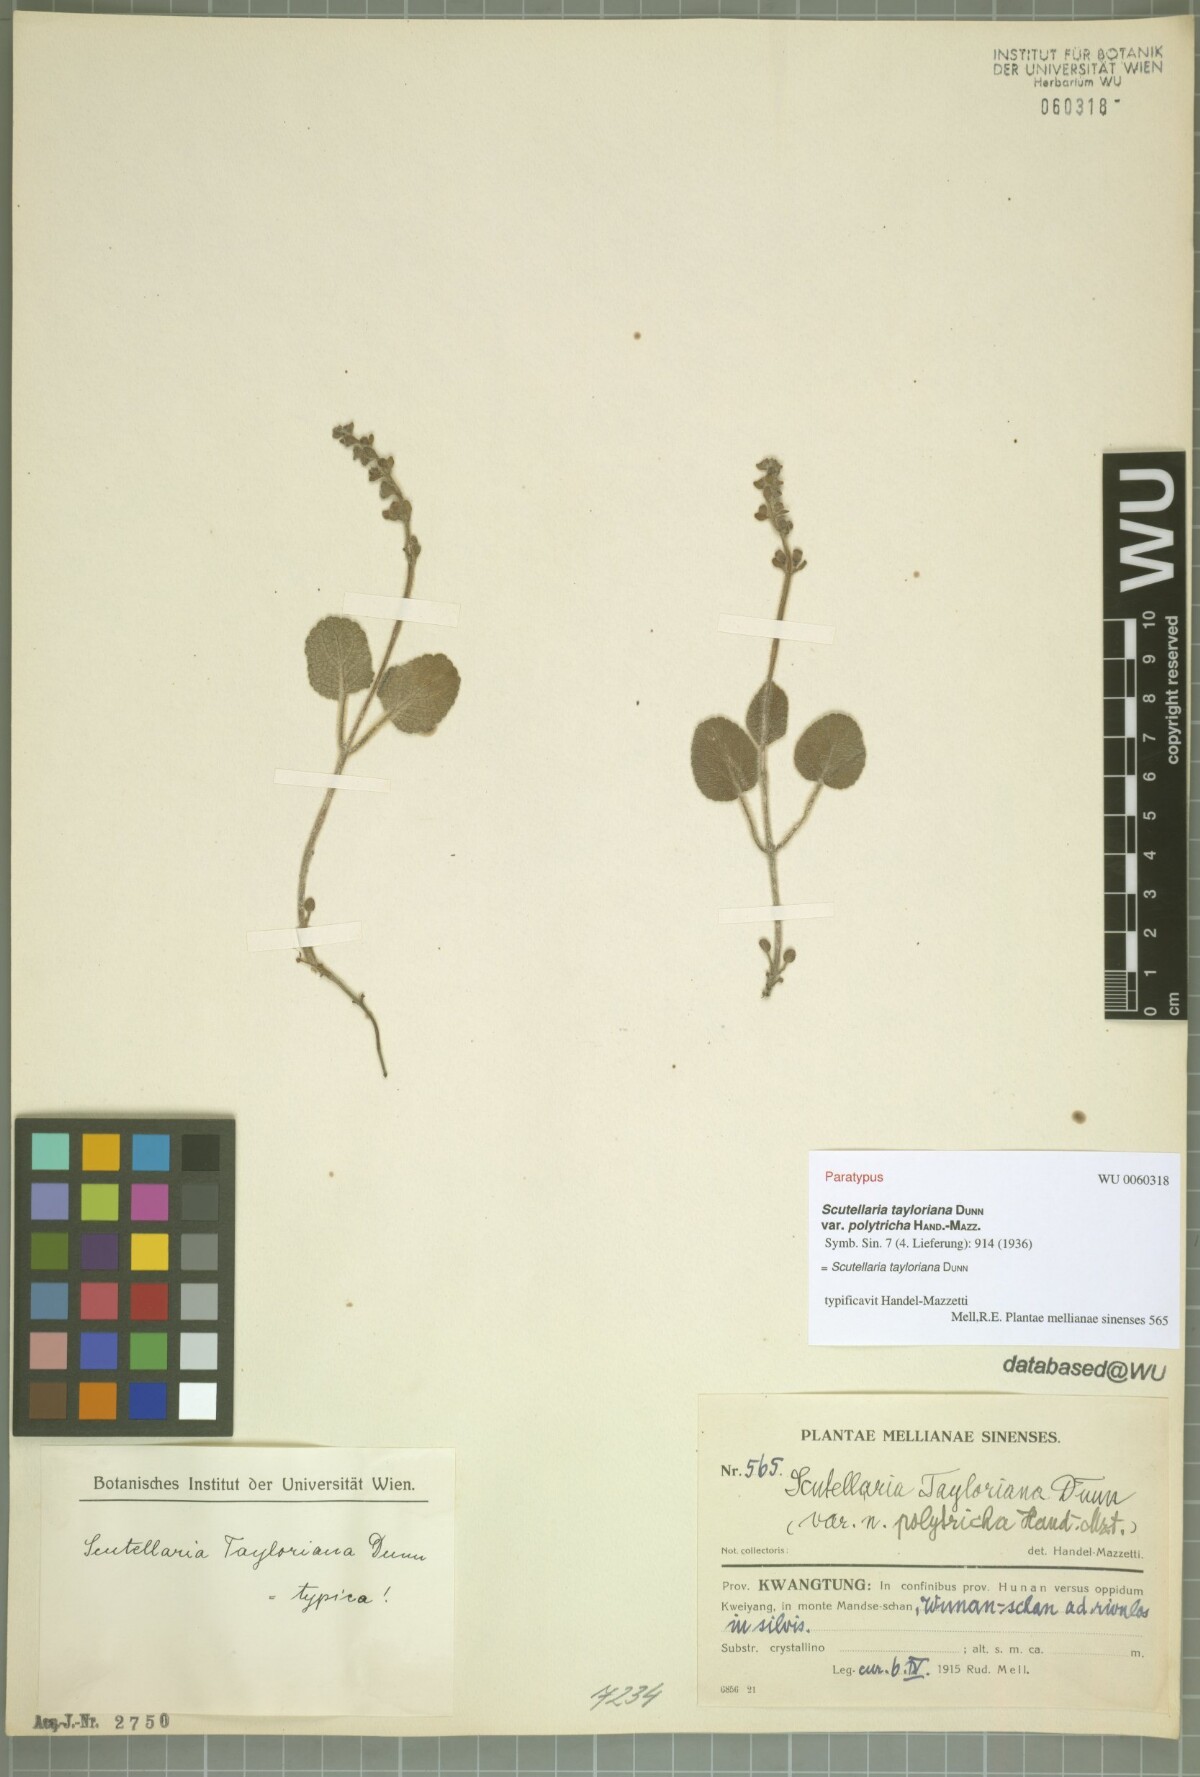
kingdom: Plantae
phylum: Tracheophyta
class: Magnoliopsida
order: Lamiales
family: Lamiaceae
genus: Scutellaria
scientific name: Scutellaria tayloriana
